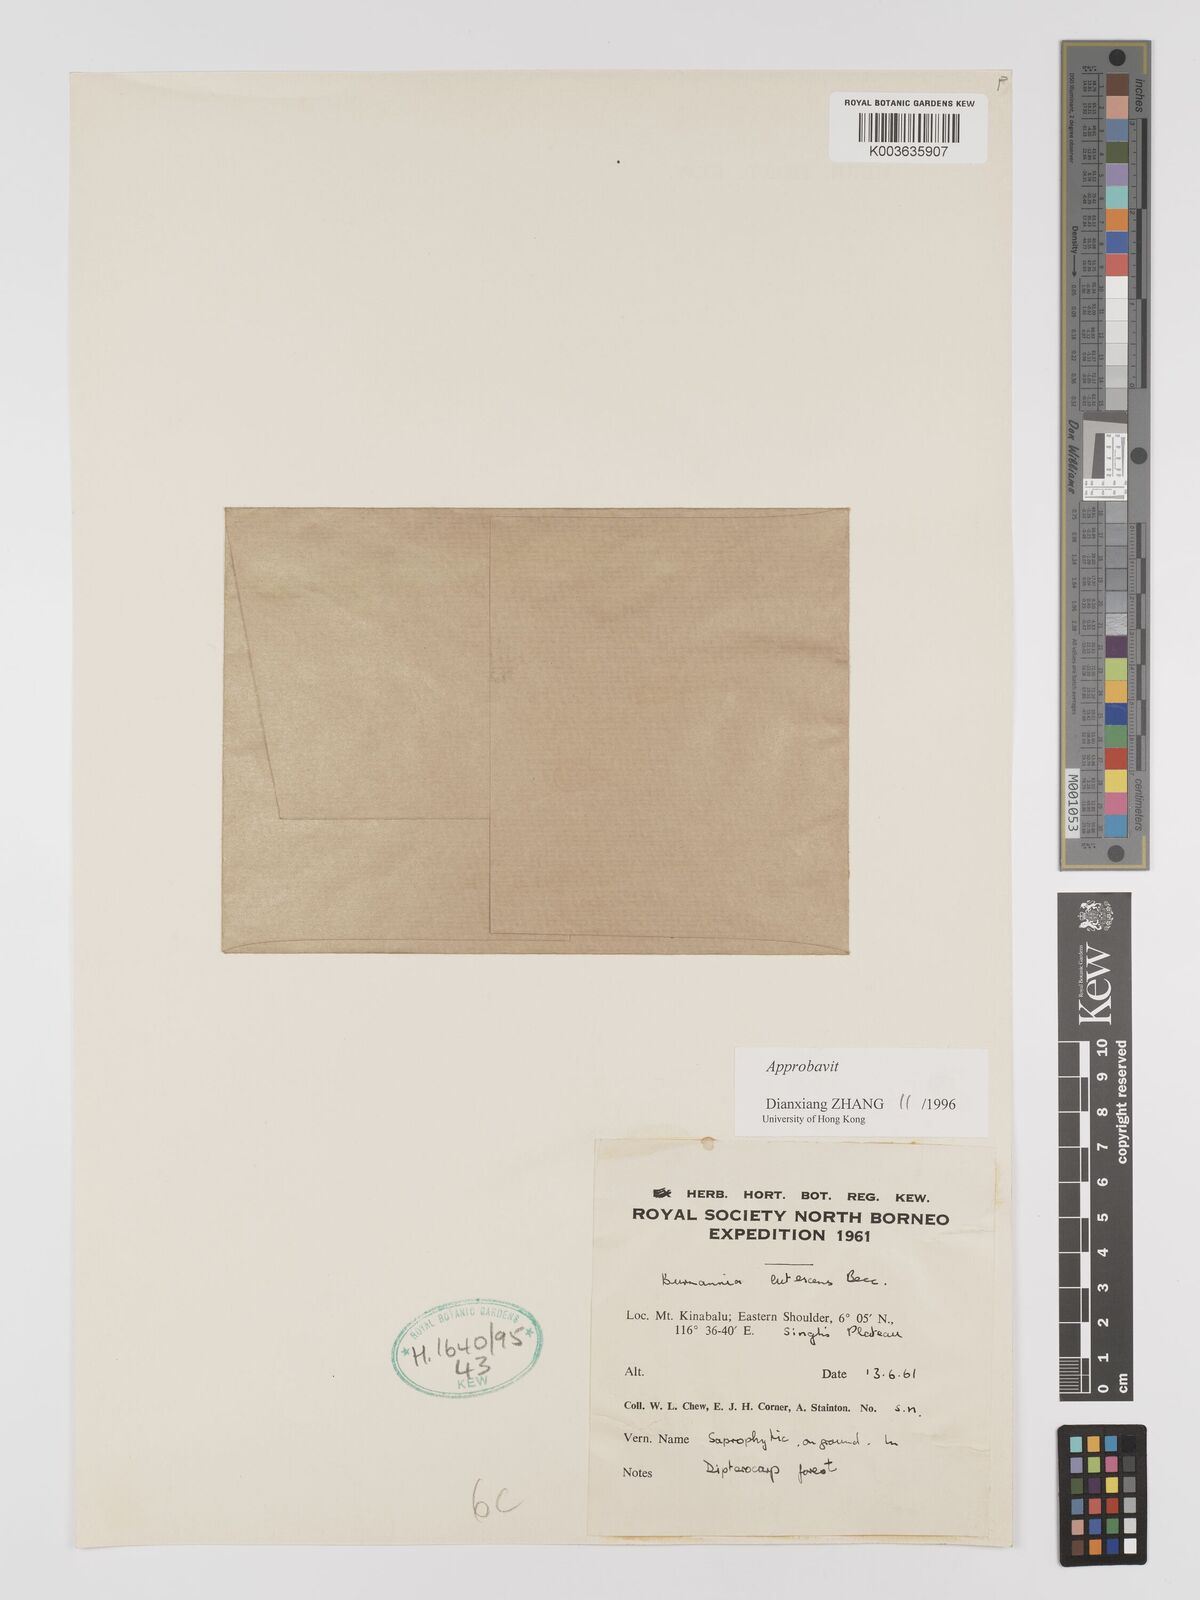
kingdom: Plantae
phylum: Tracheophyta
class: Liliopsida
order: Dioscoreales
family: Burmanniaceae
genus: Burmannia
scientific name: Burmannia lutescens
